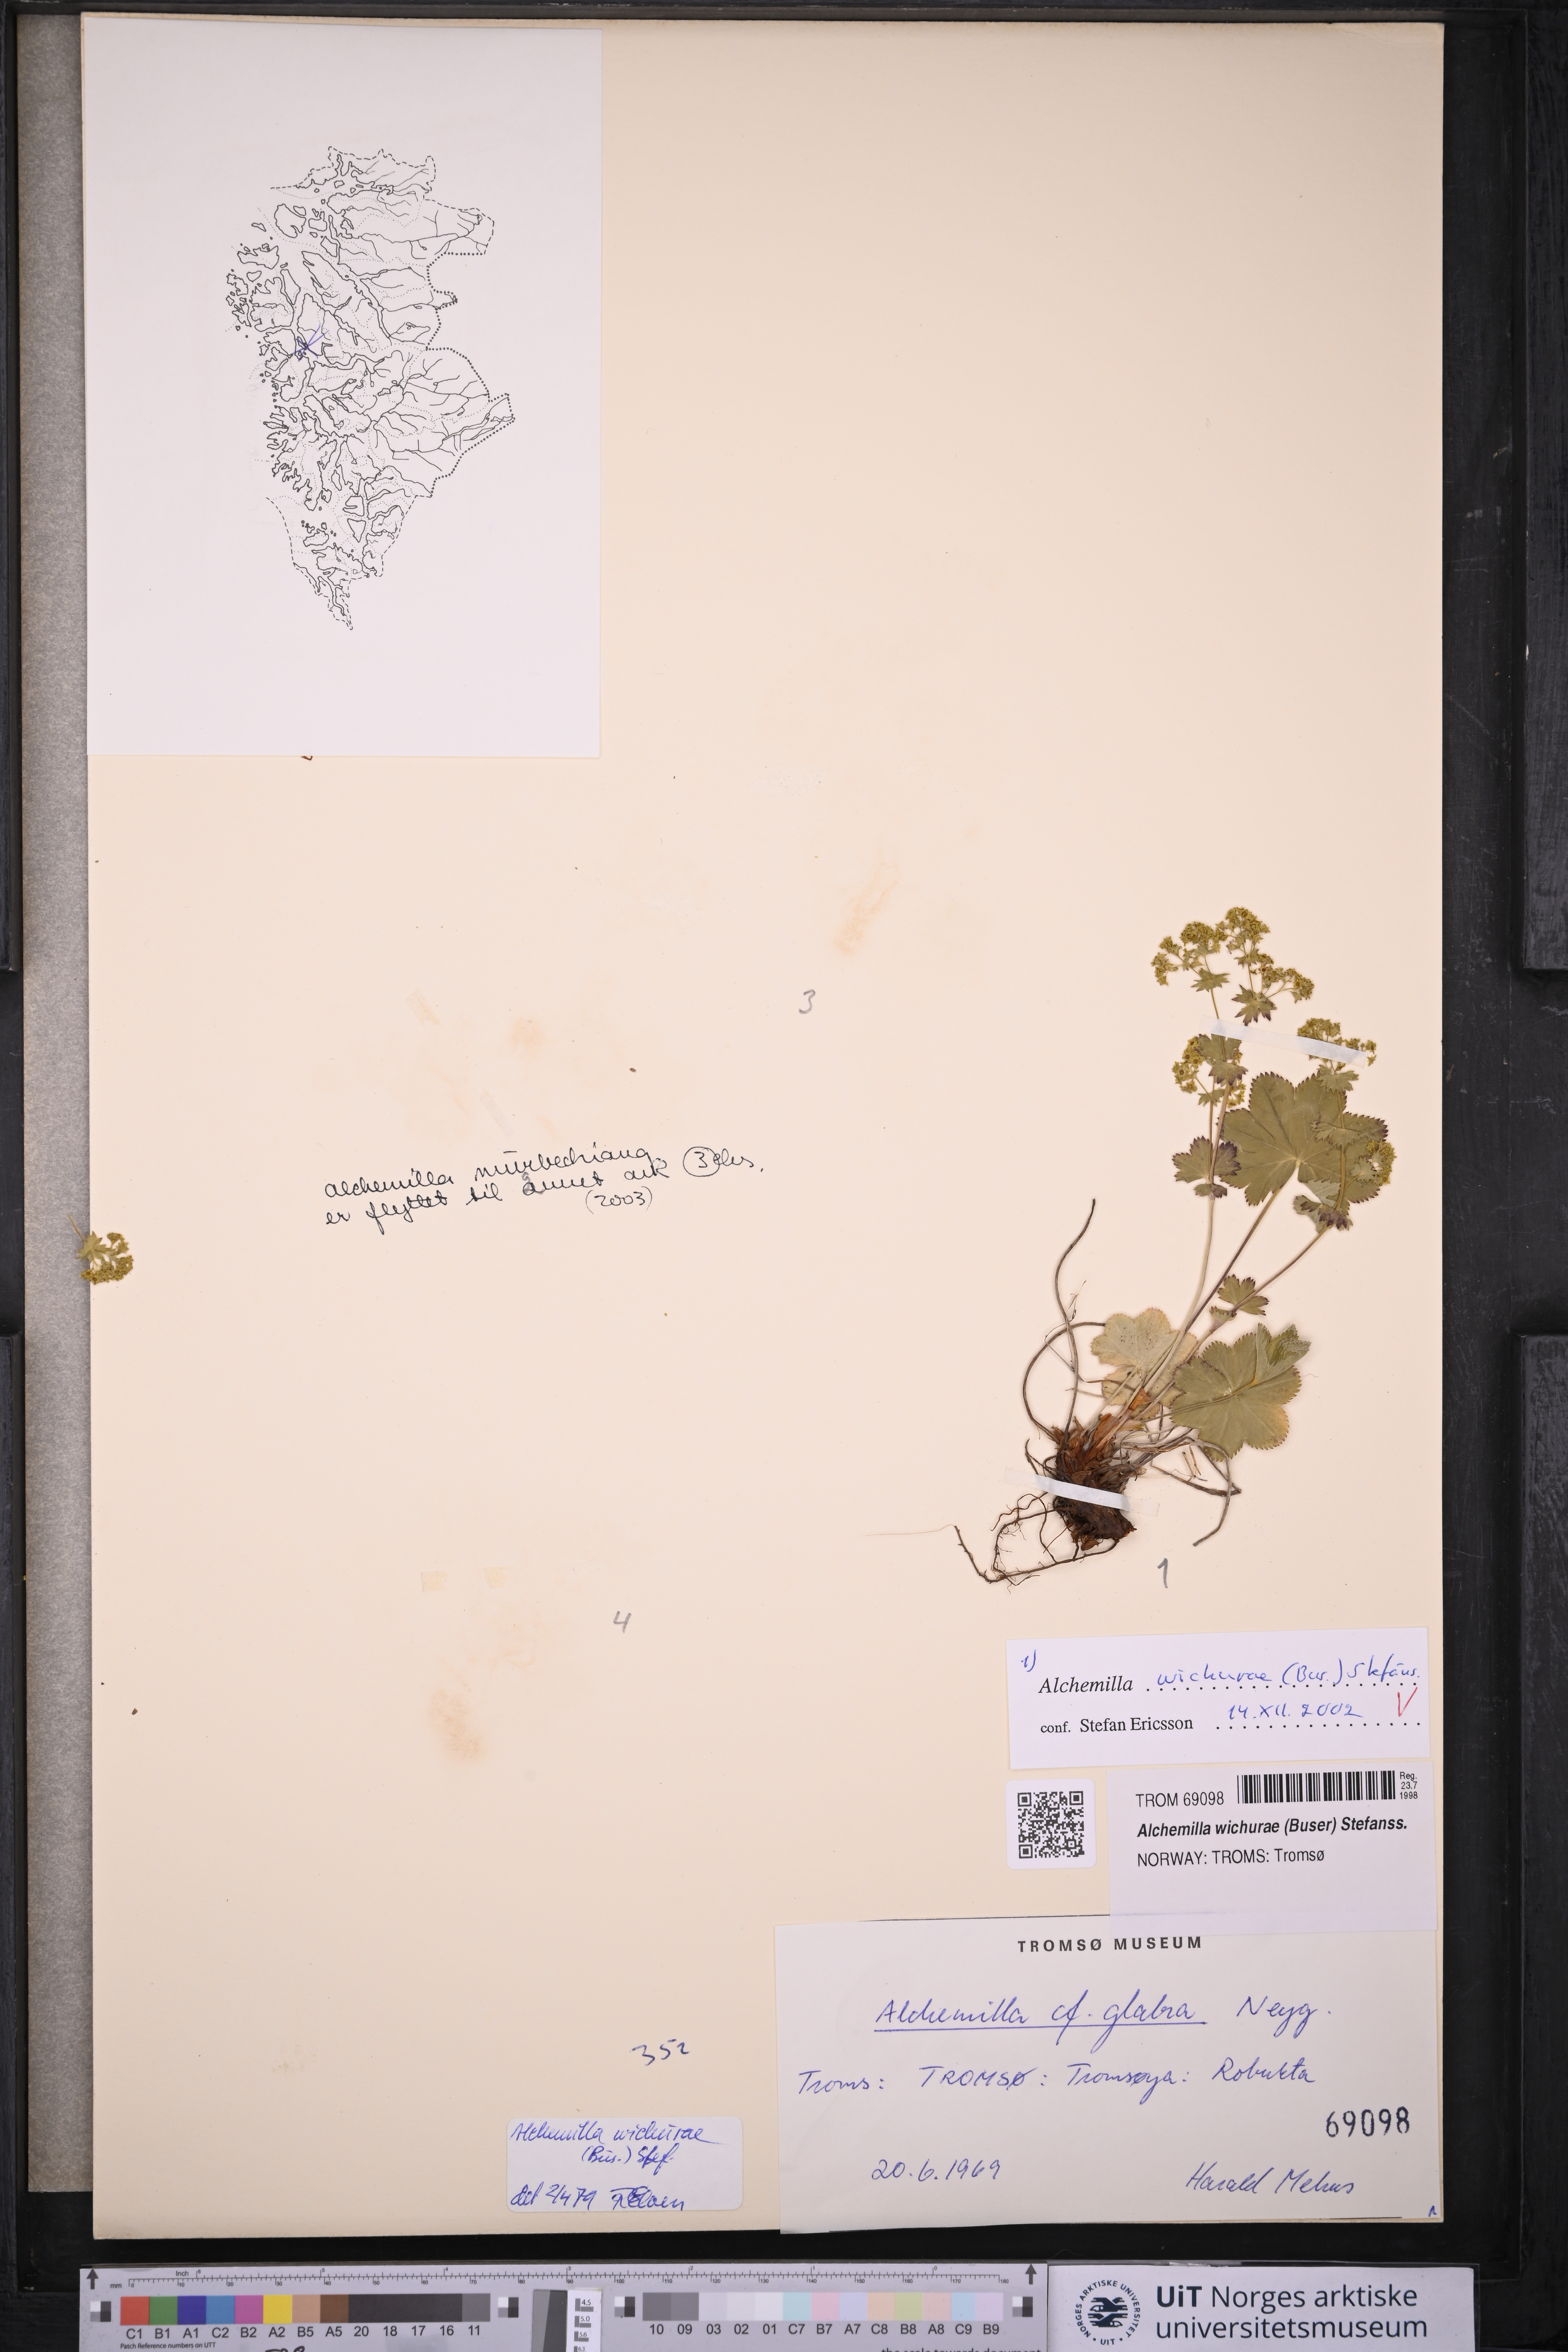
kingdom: Plantae
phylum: Tracheophyta
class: Magnoliopsida
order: Rosales
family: Rosaceae
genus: Alchemilla
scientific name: Alchemilla wichurae
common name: Rock lady's mantle
